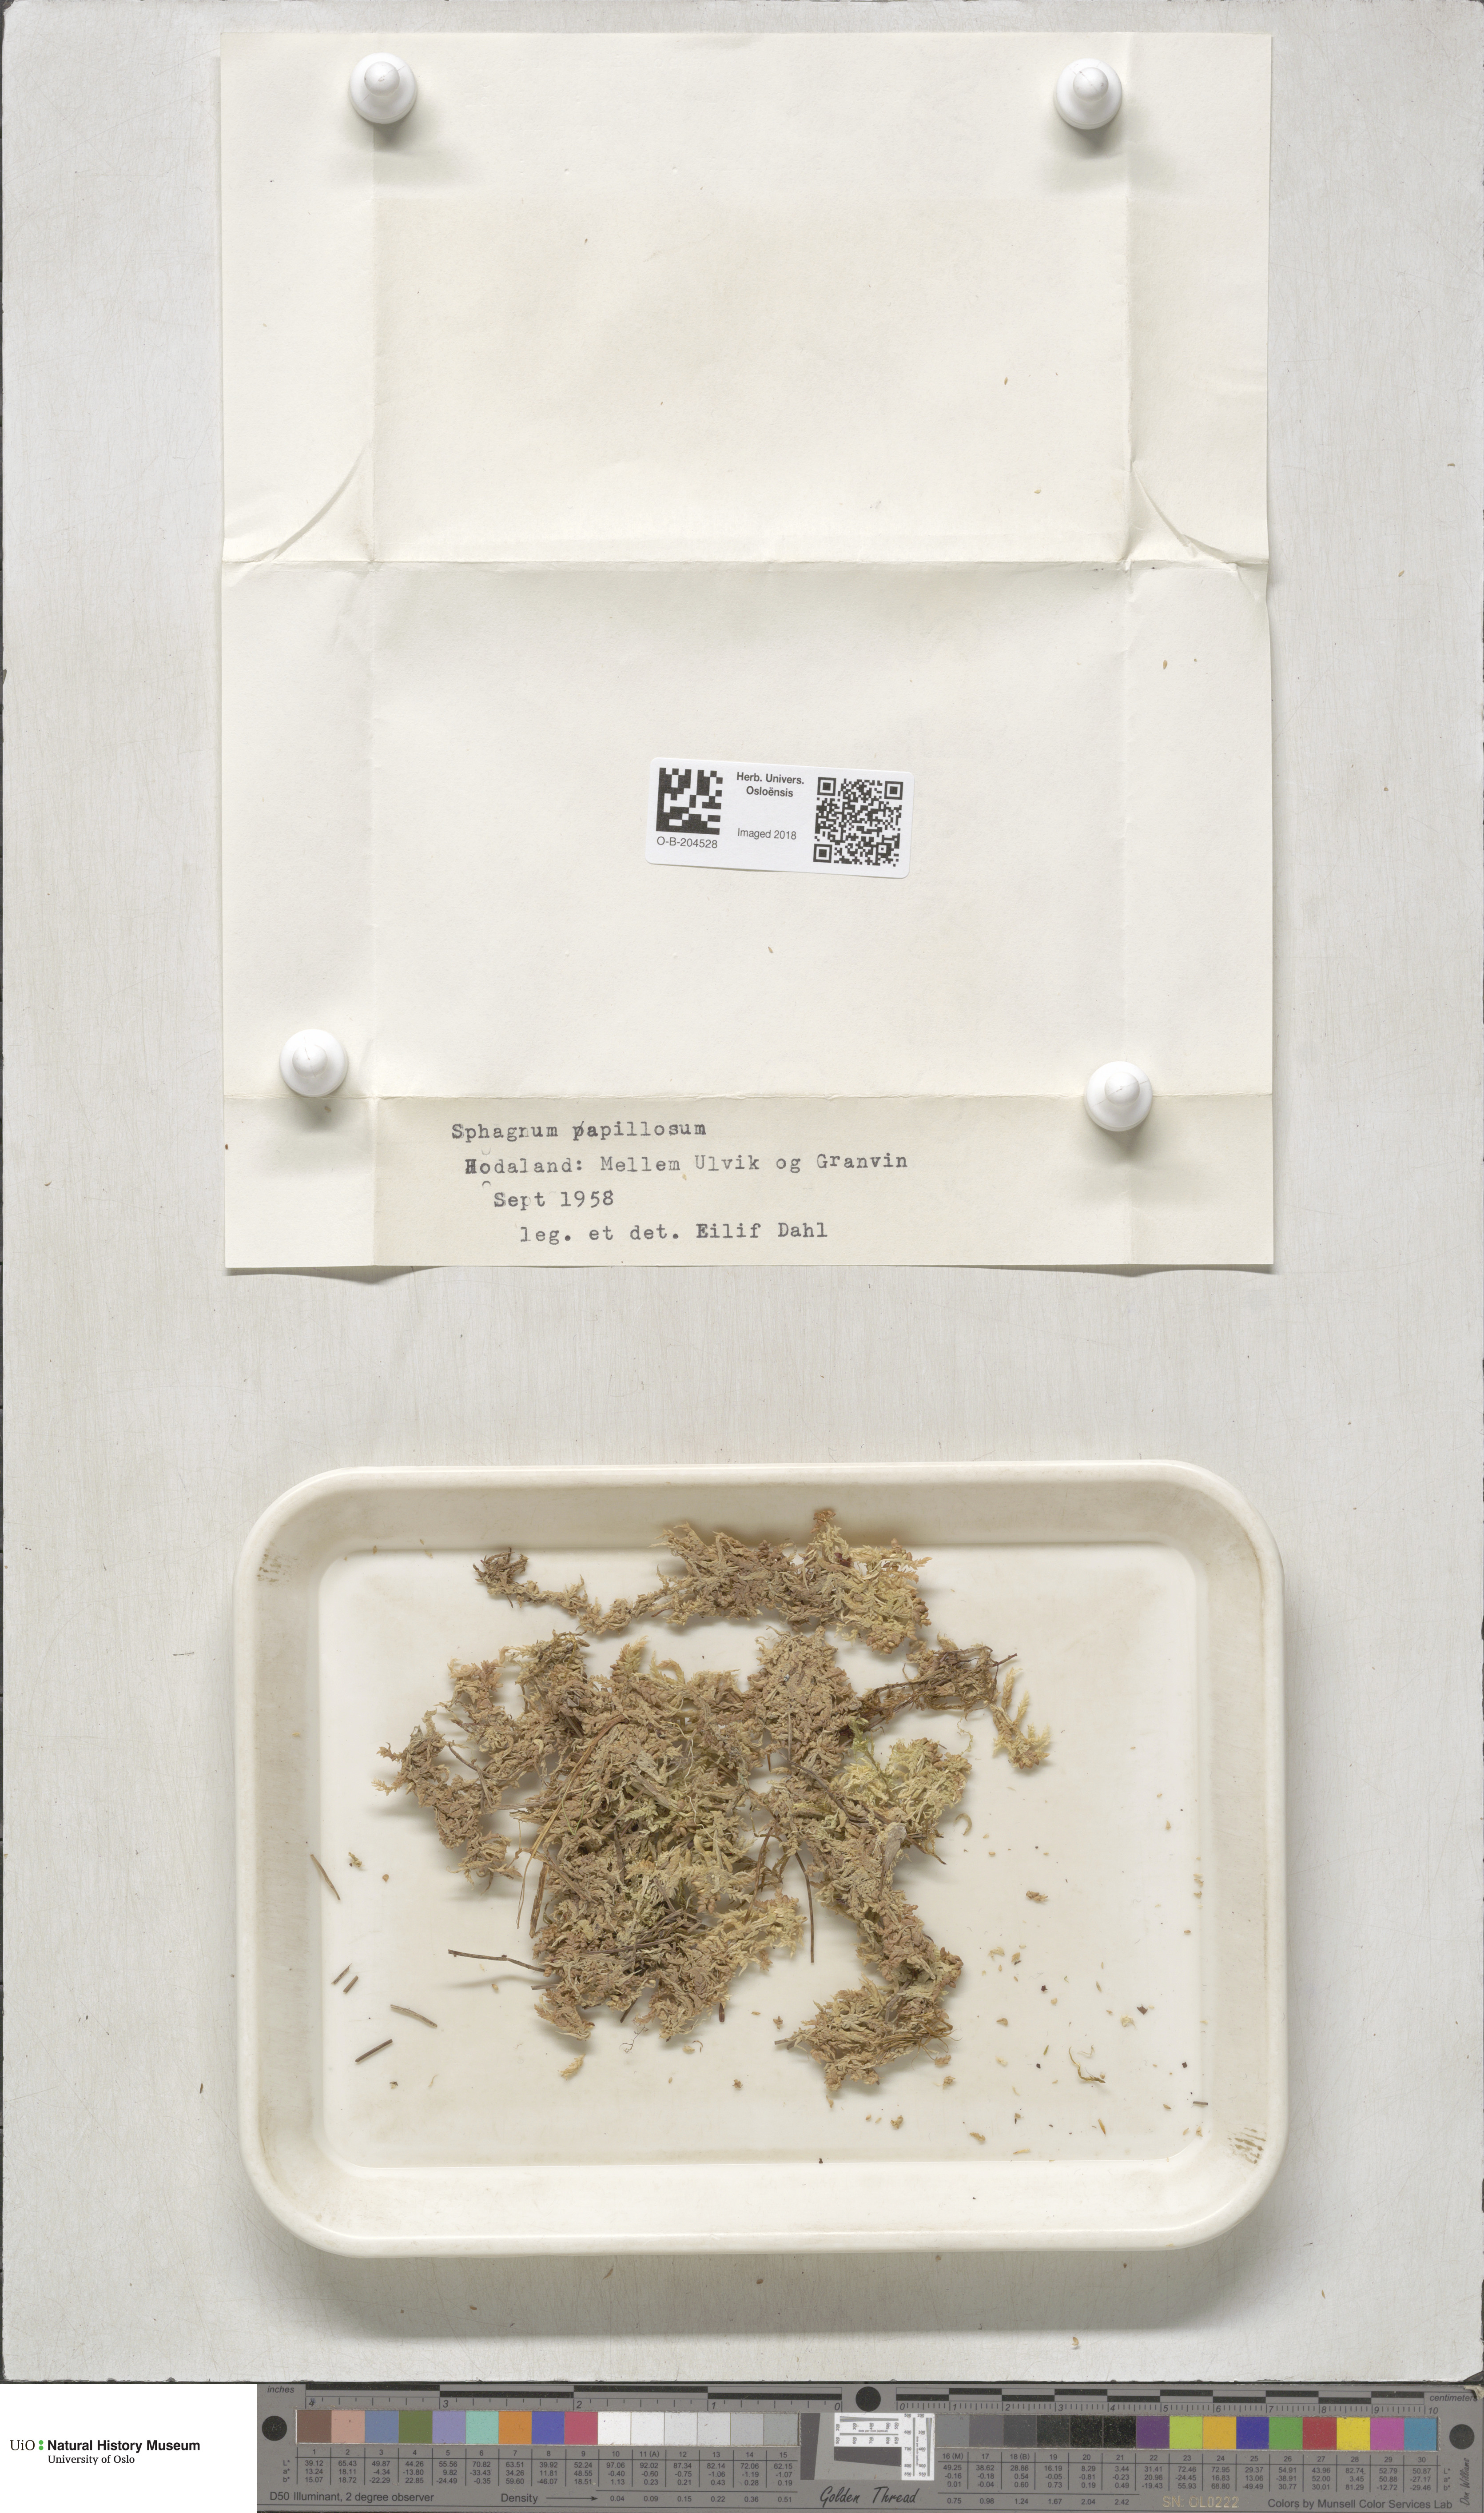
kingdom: Plantae
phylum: Bryophyta
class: Sphagnopsida
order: Sphagnales
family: Sphagnaceae
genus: Sphagnum
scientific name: Sphagnum papillosum
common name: Papillose peat moss
